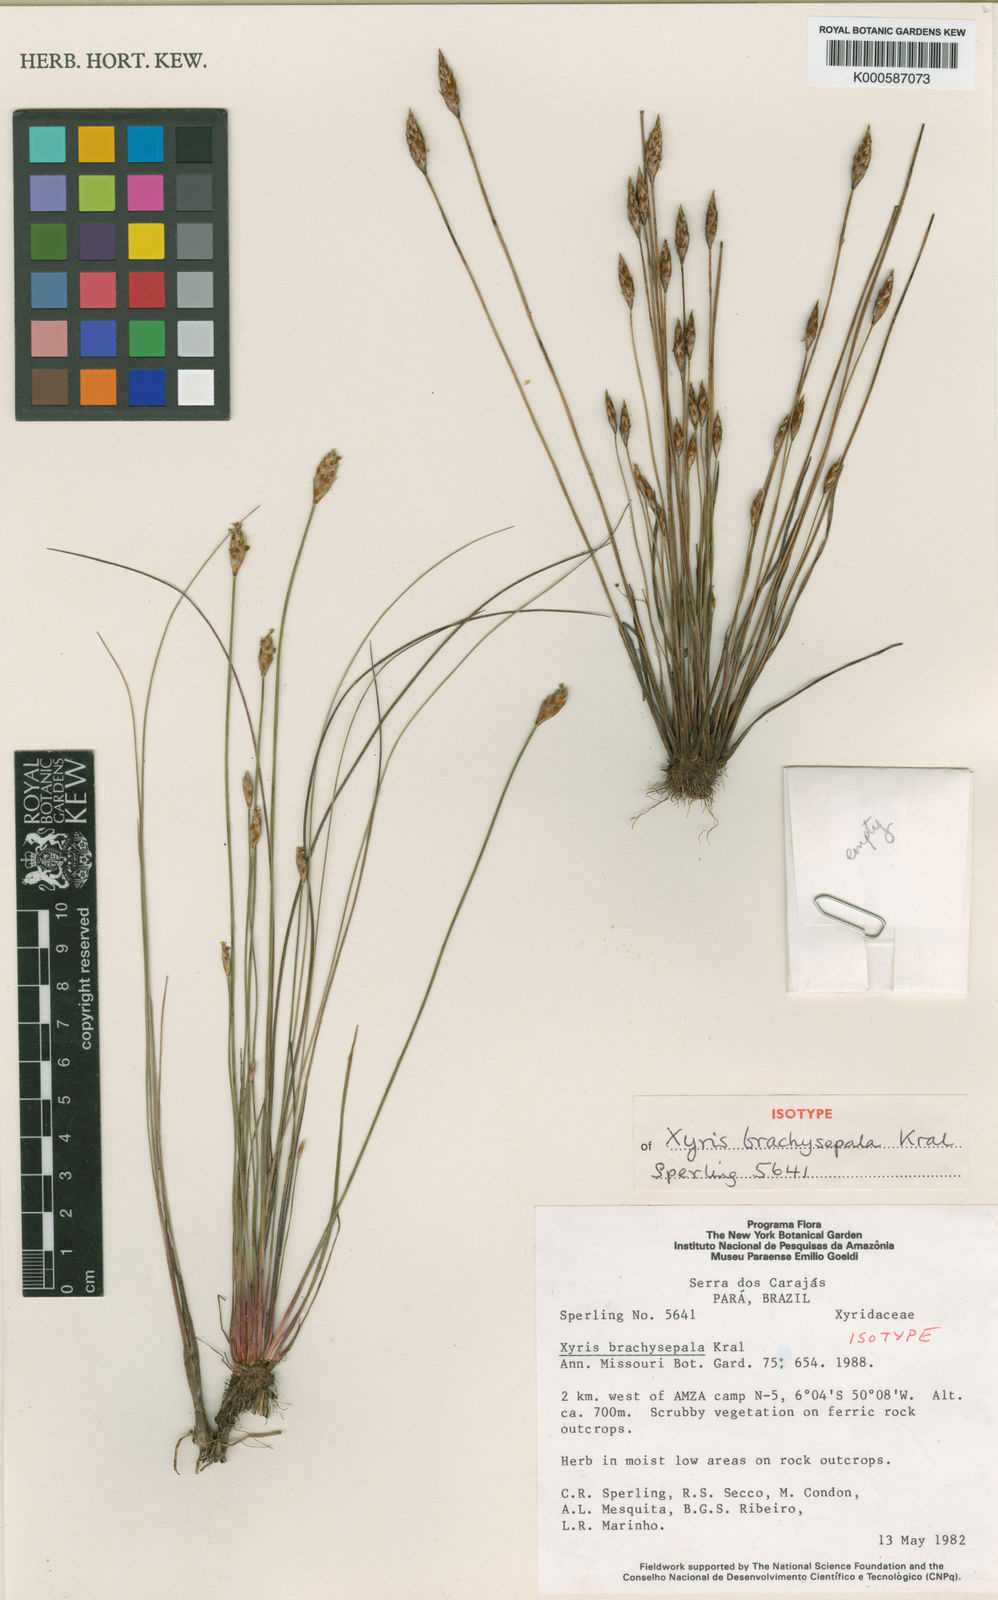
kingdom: Plantae
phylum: Tracheophyta
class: Liliopsida
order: Poales
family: Xyridaceae
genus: Xyris
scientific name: Xyris brachysepala
